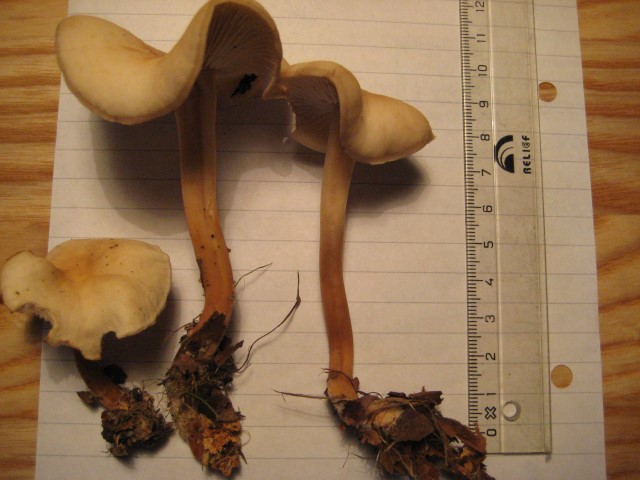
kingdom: Fungi
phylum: Basidiomycota
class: Agaricomycetes
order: Agaricales
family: Omphalotaceae
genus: Gymnopus
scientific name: Gymnopus aquosus
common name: bleg fladhat
